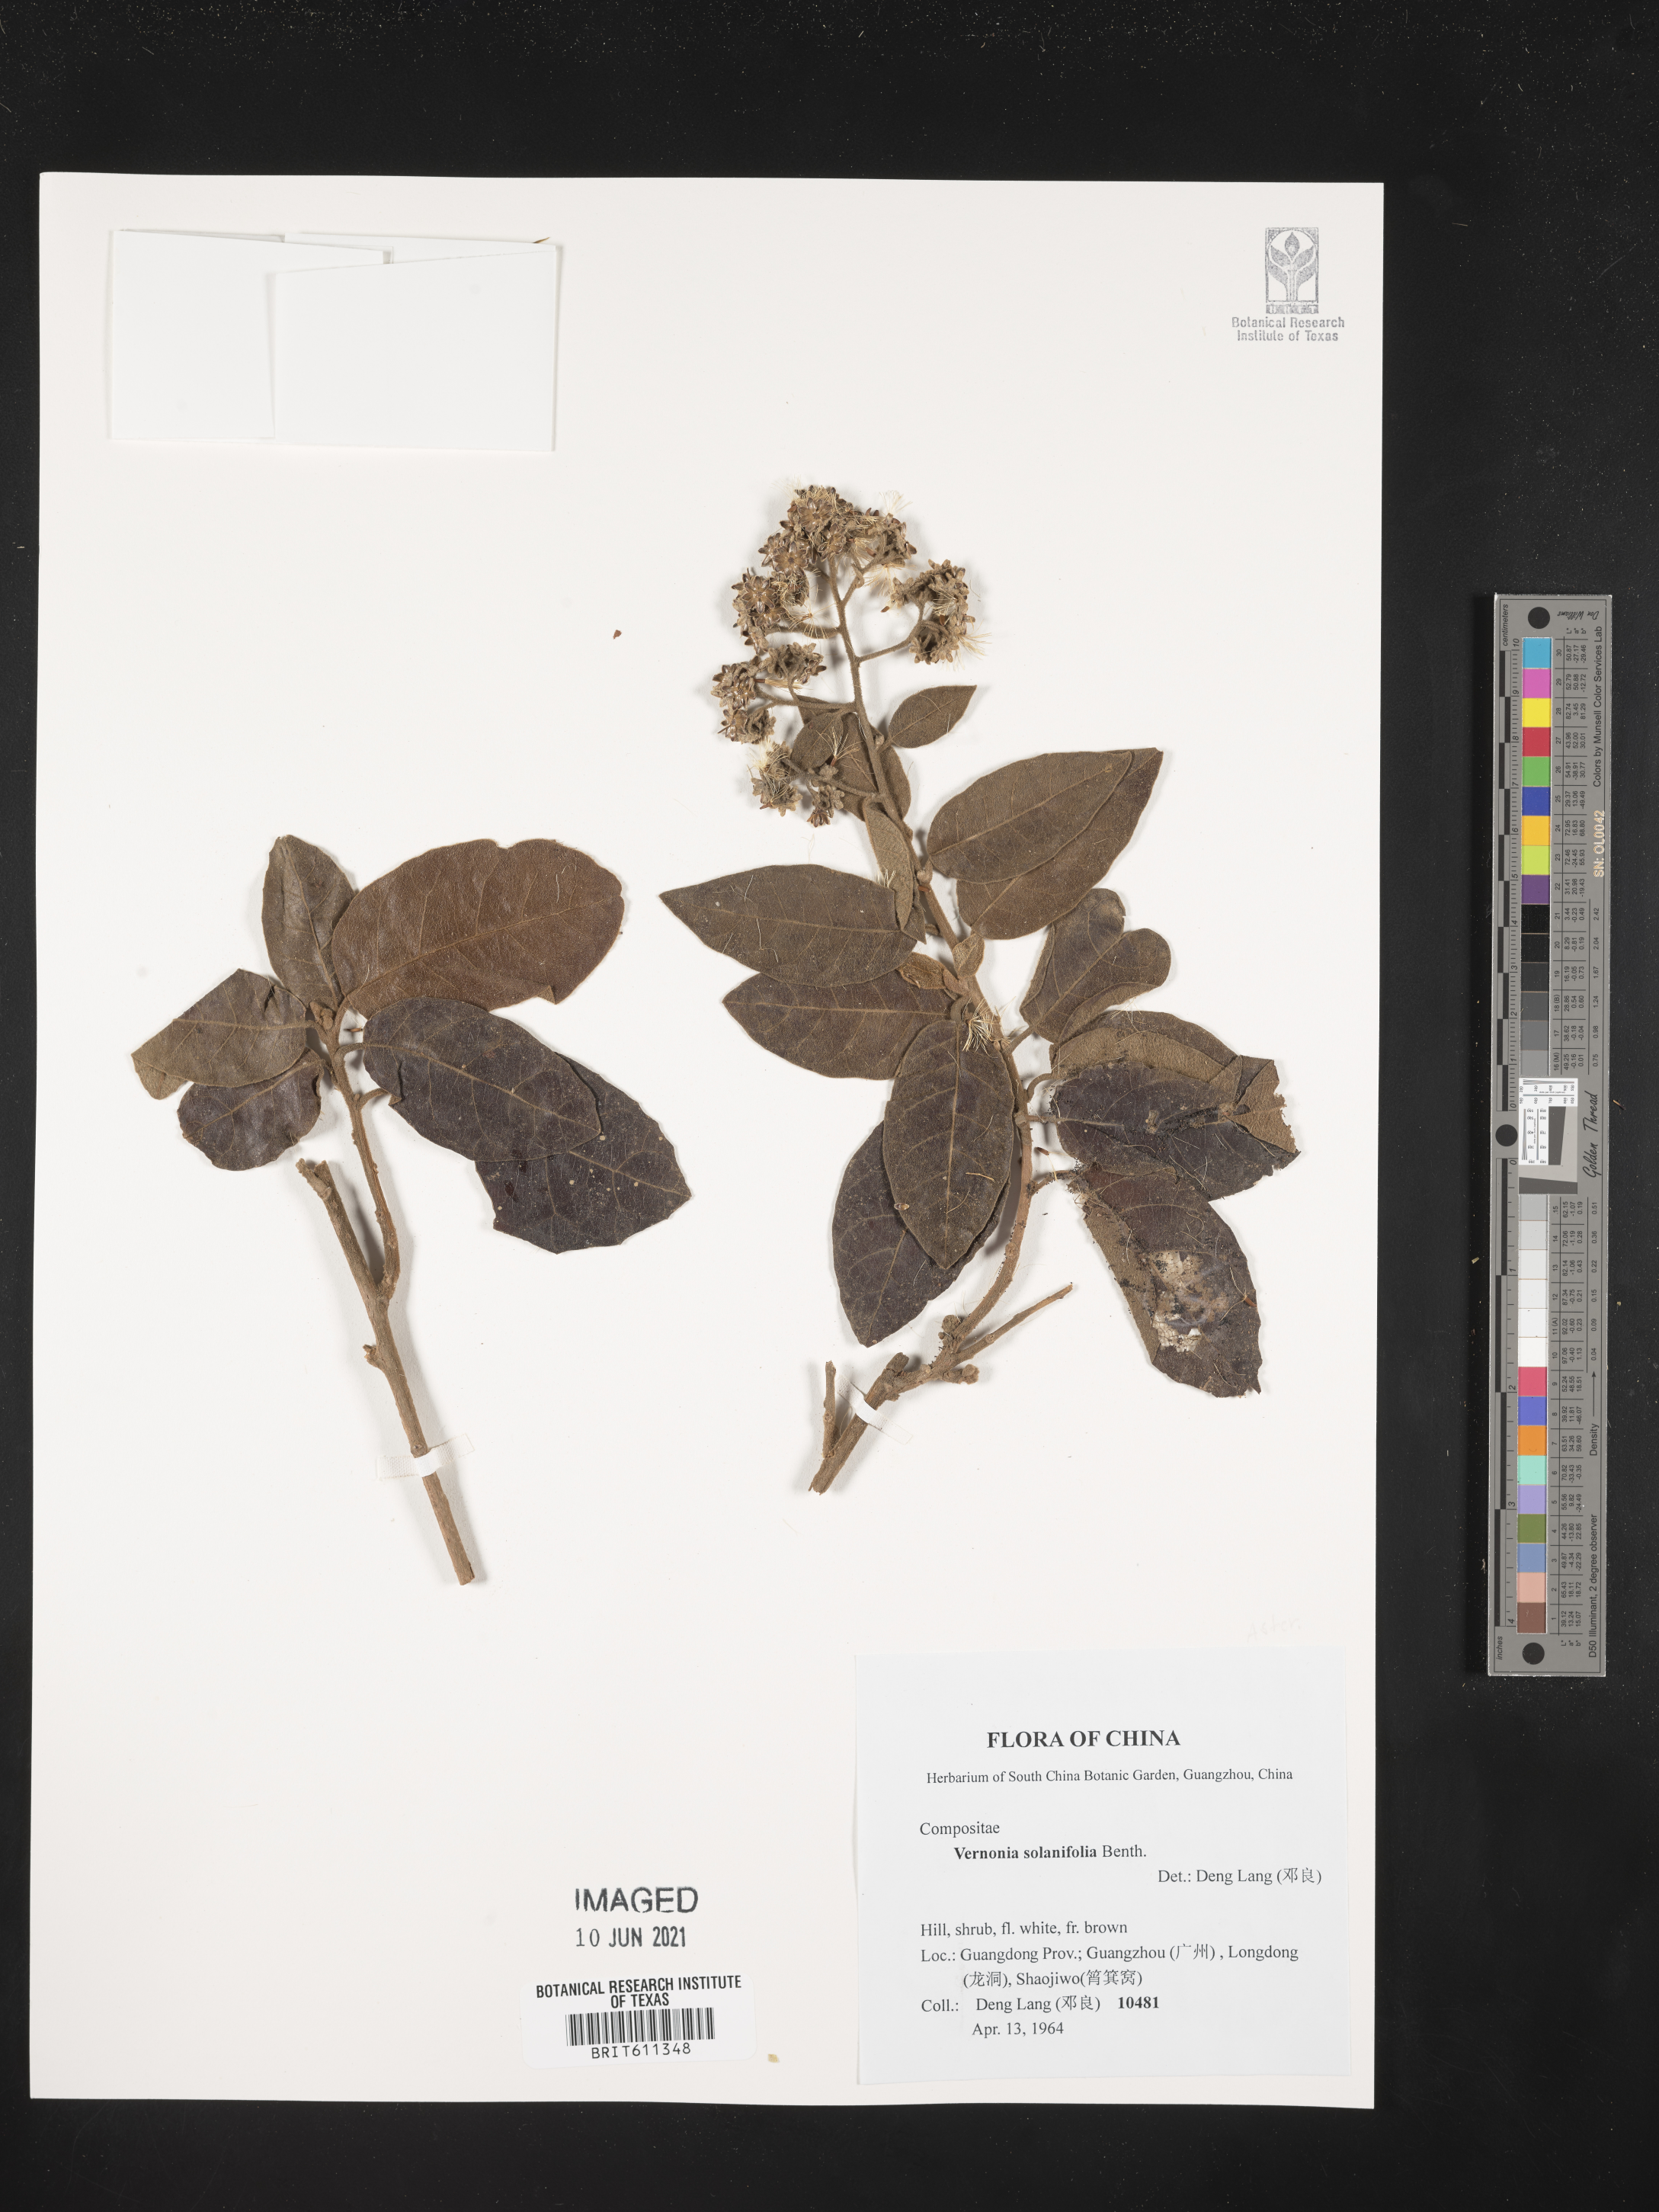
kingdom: Plantae
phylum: Tracheophyta
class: Magnoliopsida
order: Asterales
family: Asteraceae
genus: Strobocalyx
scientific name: Strobocalyx solanifolia
